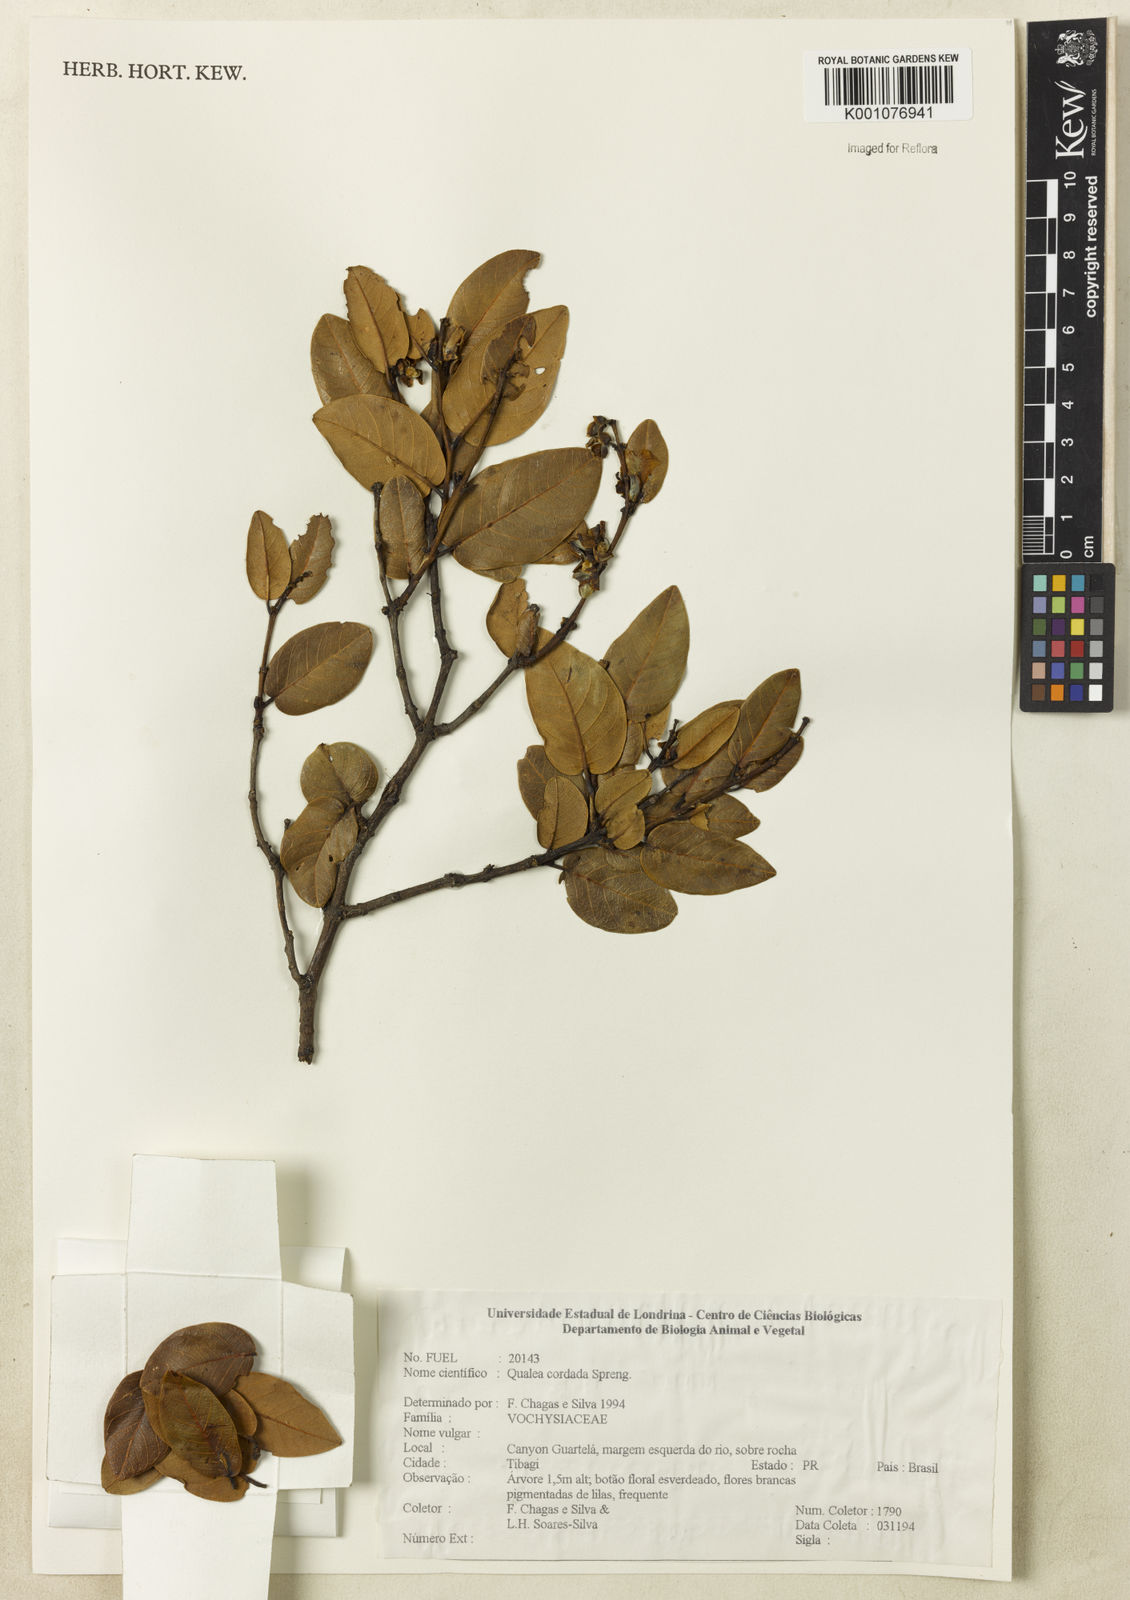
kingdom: Plantae
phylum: Tracheophyta
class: Magnoliopsida
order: Myrtales
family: Vochysiaceae
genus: Qualea
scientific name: Qualea cordata
